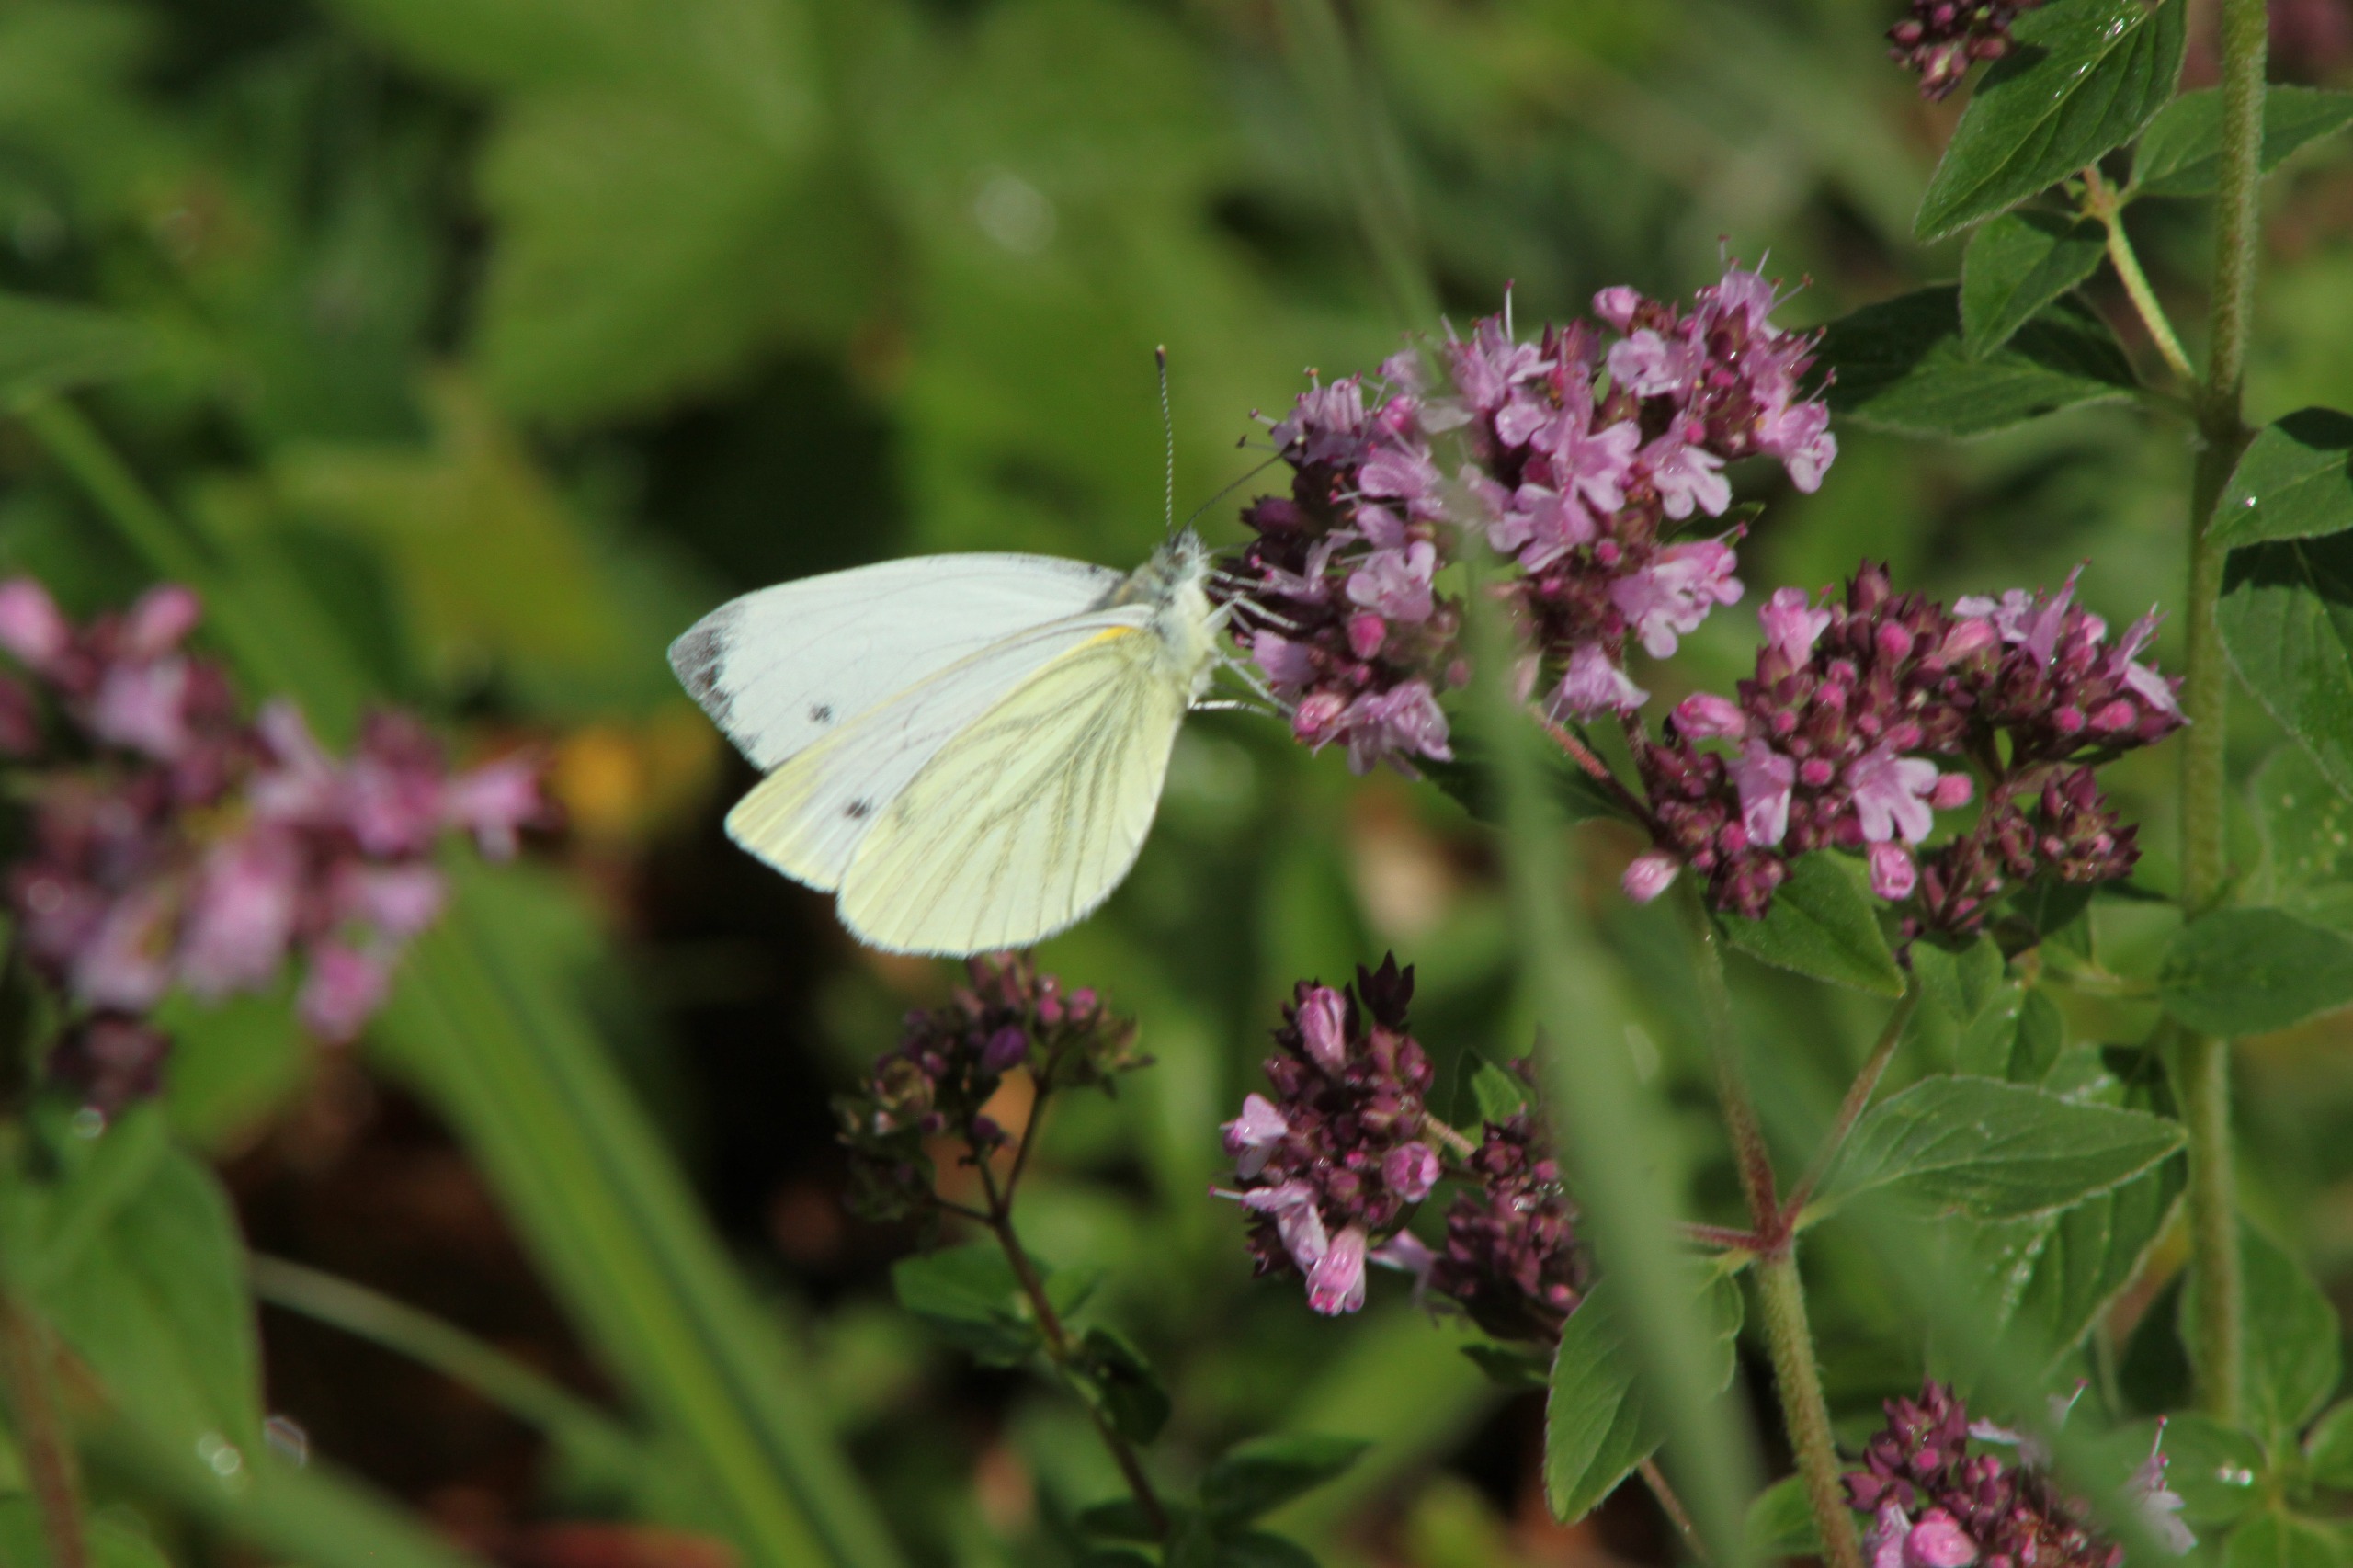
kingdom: Animalia
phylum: Arthropoda
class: Insecta
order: Lepidoptera
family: Pieridae
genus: Pieris
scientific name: Pieris napi
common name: Grønåret kålsommerfugl
